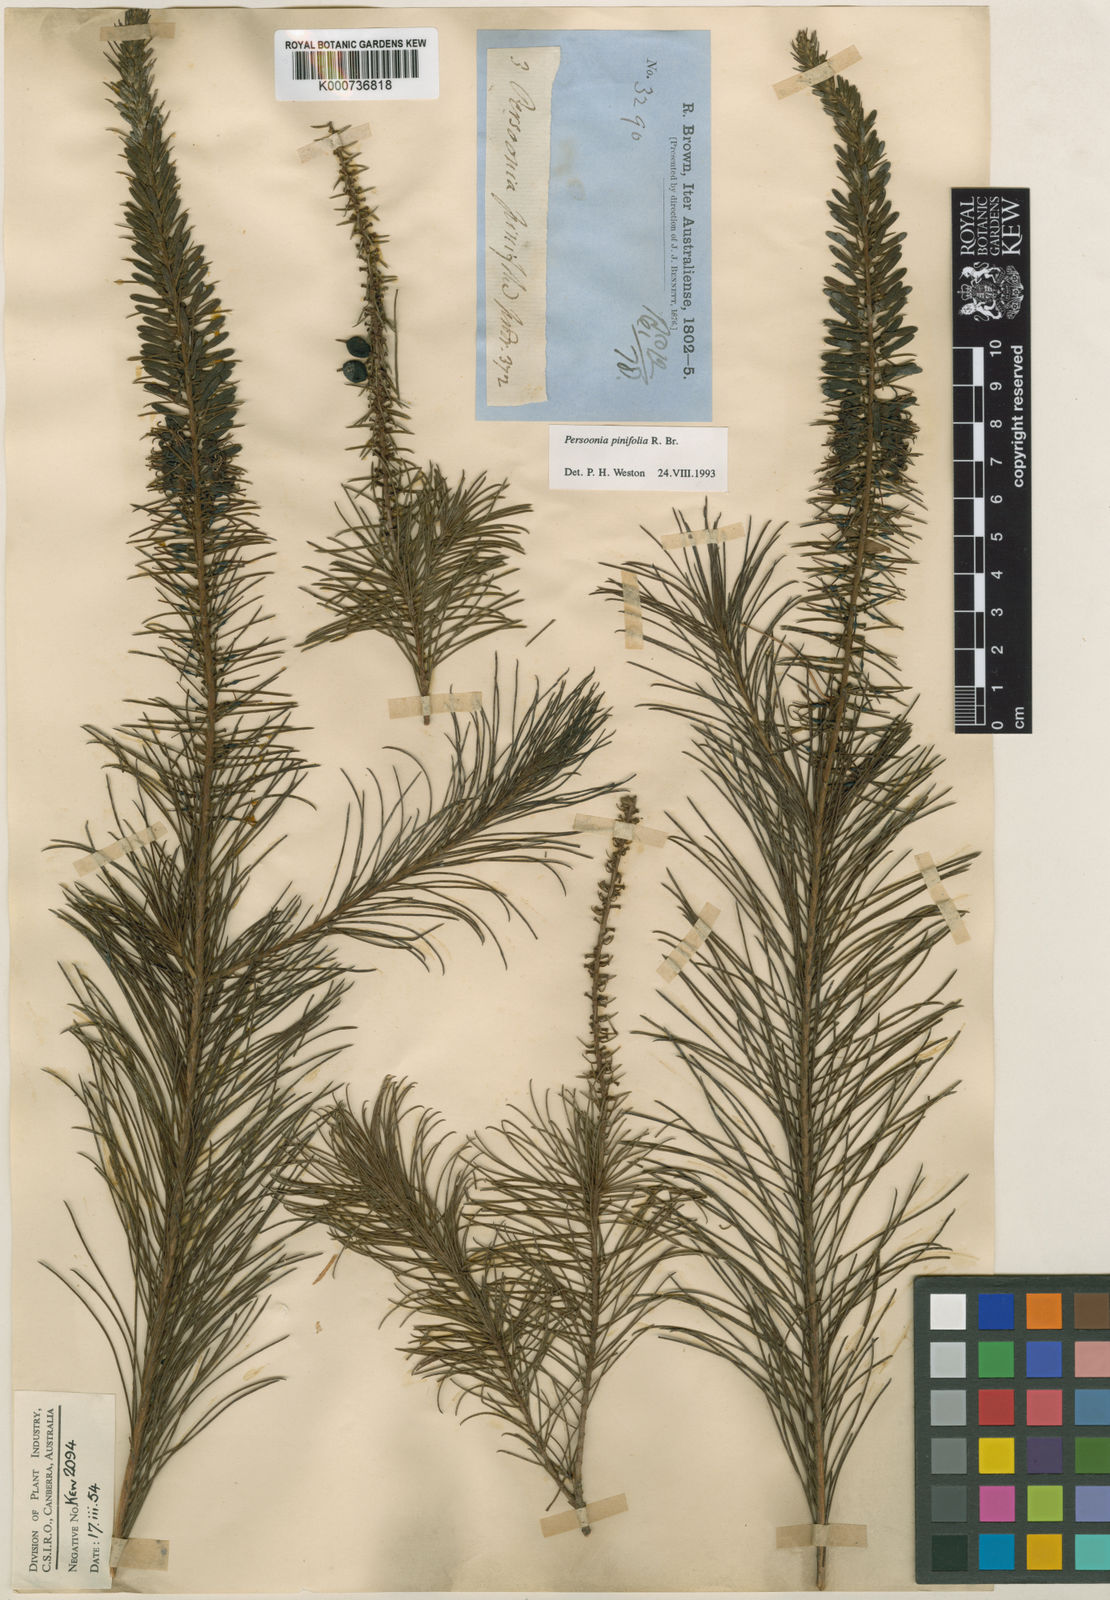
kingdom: Plantae
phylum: Tracheophyta
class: Magnoliopsida
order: Proteales
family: Proteaceae
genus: Persoonia
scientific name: Persoonia pinifolia
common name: Pine-leaf geebung
